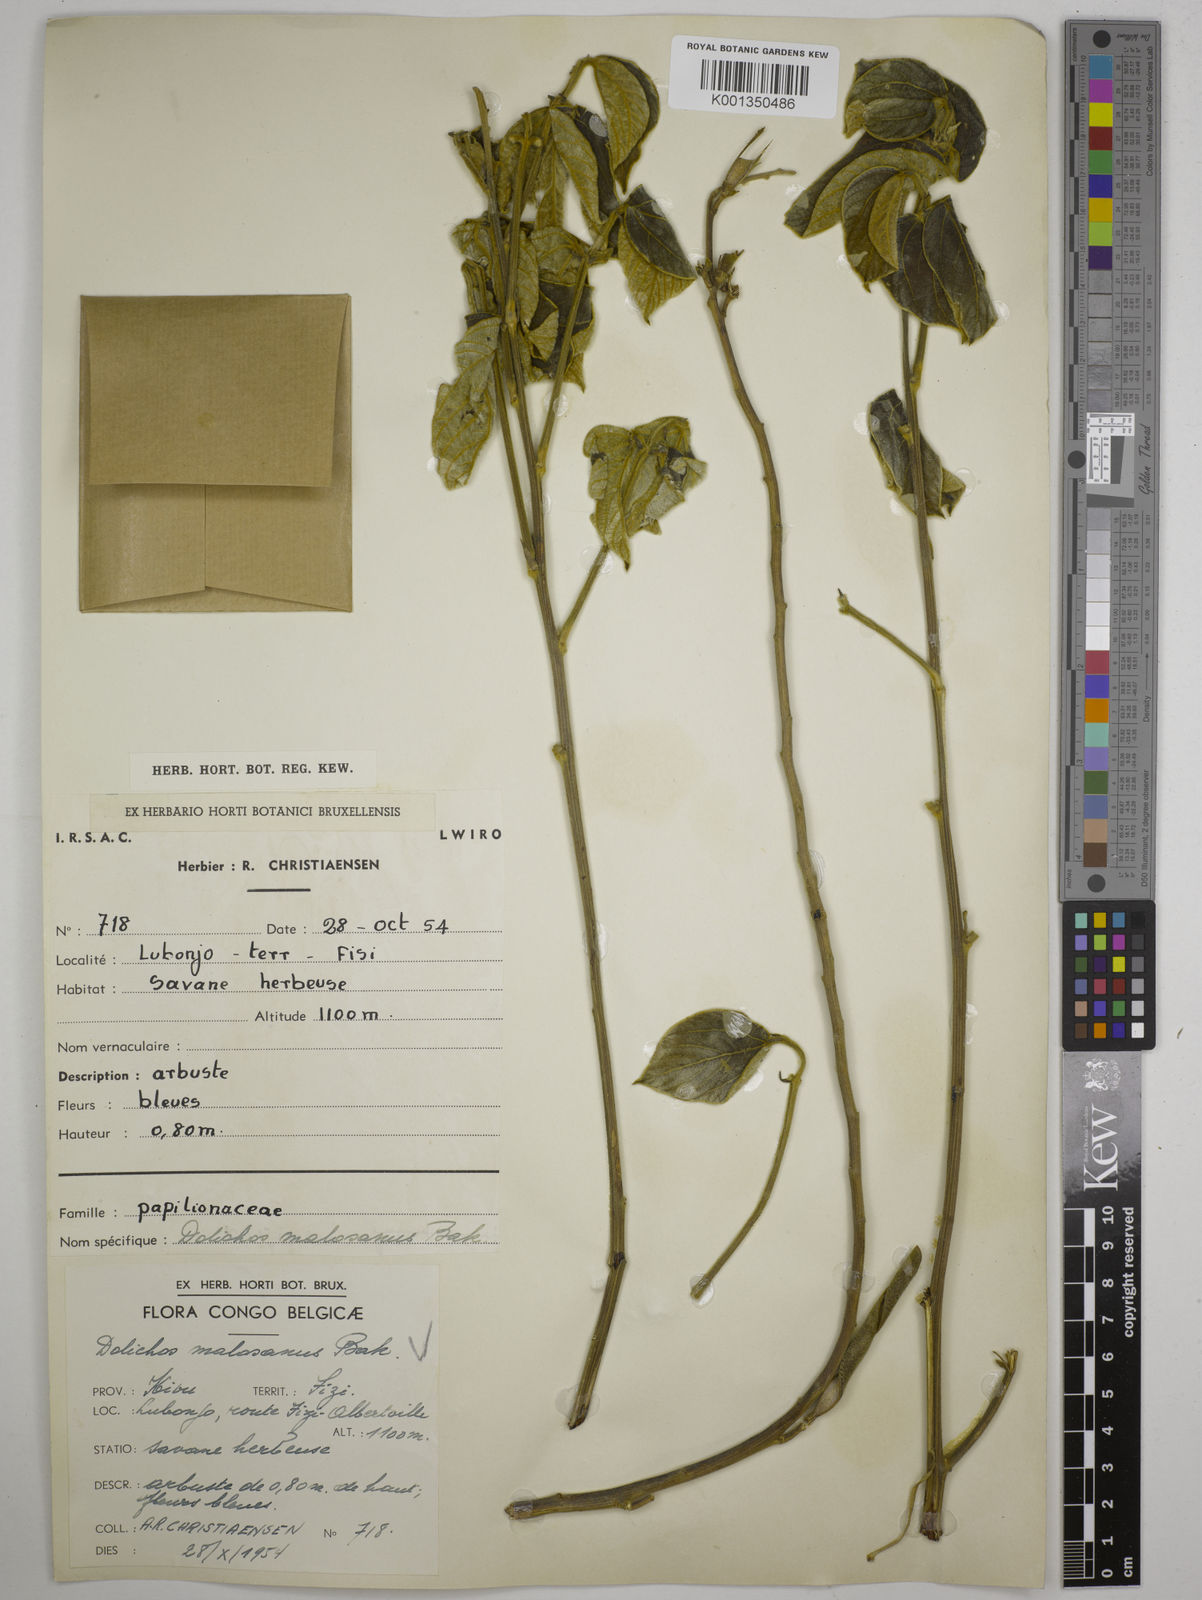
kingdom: Plantae
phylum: Tracheophyta
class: Magnoliopsida
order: Fabales
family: Fabaceae
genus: Dolichos
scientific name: Dolichos kilimandscharicus
